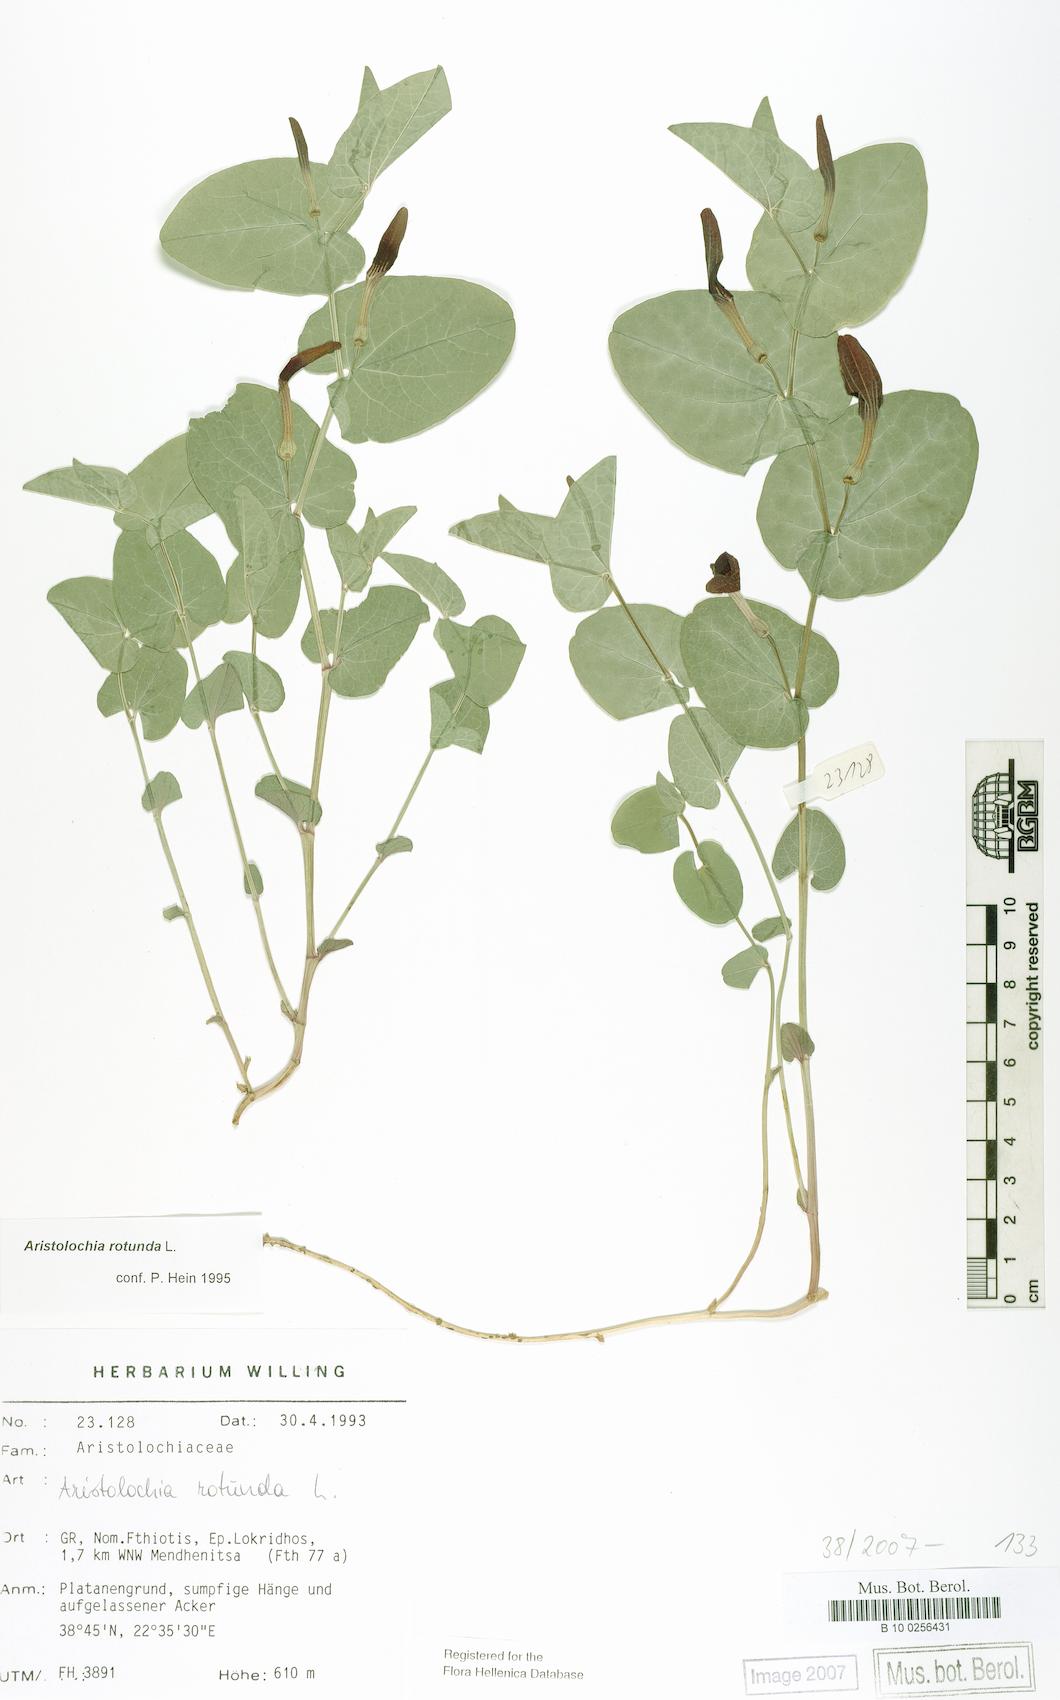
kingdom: Plantae
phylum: Tracheophyta
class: Magnoliopsida
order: Piperales
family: Aristolochiaceae
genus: Aristolochia
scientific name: Aristolochia rotunda
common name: Smearwort
